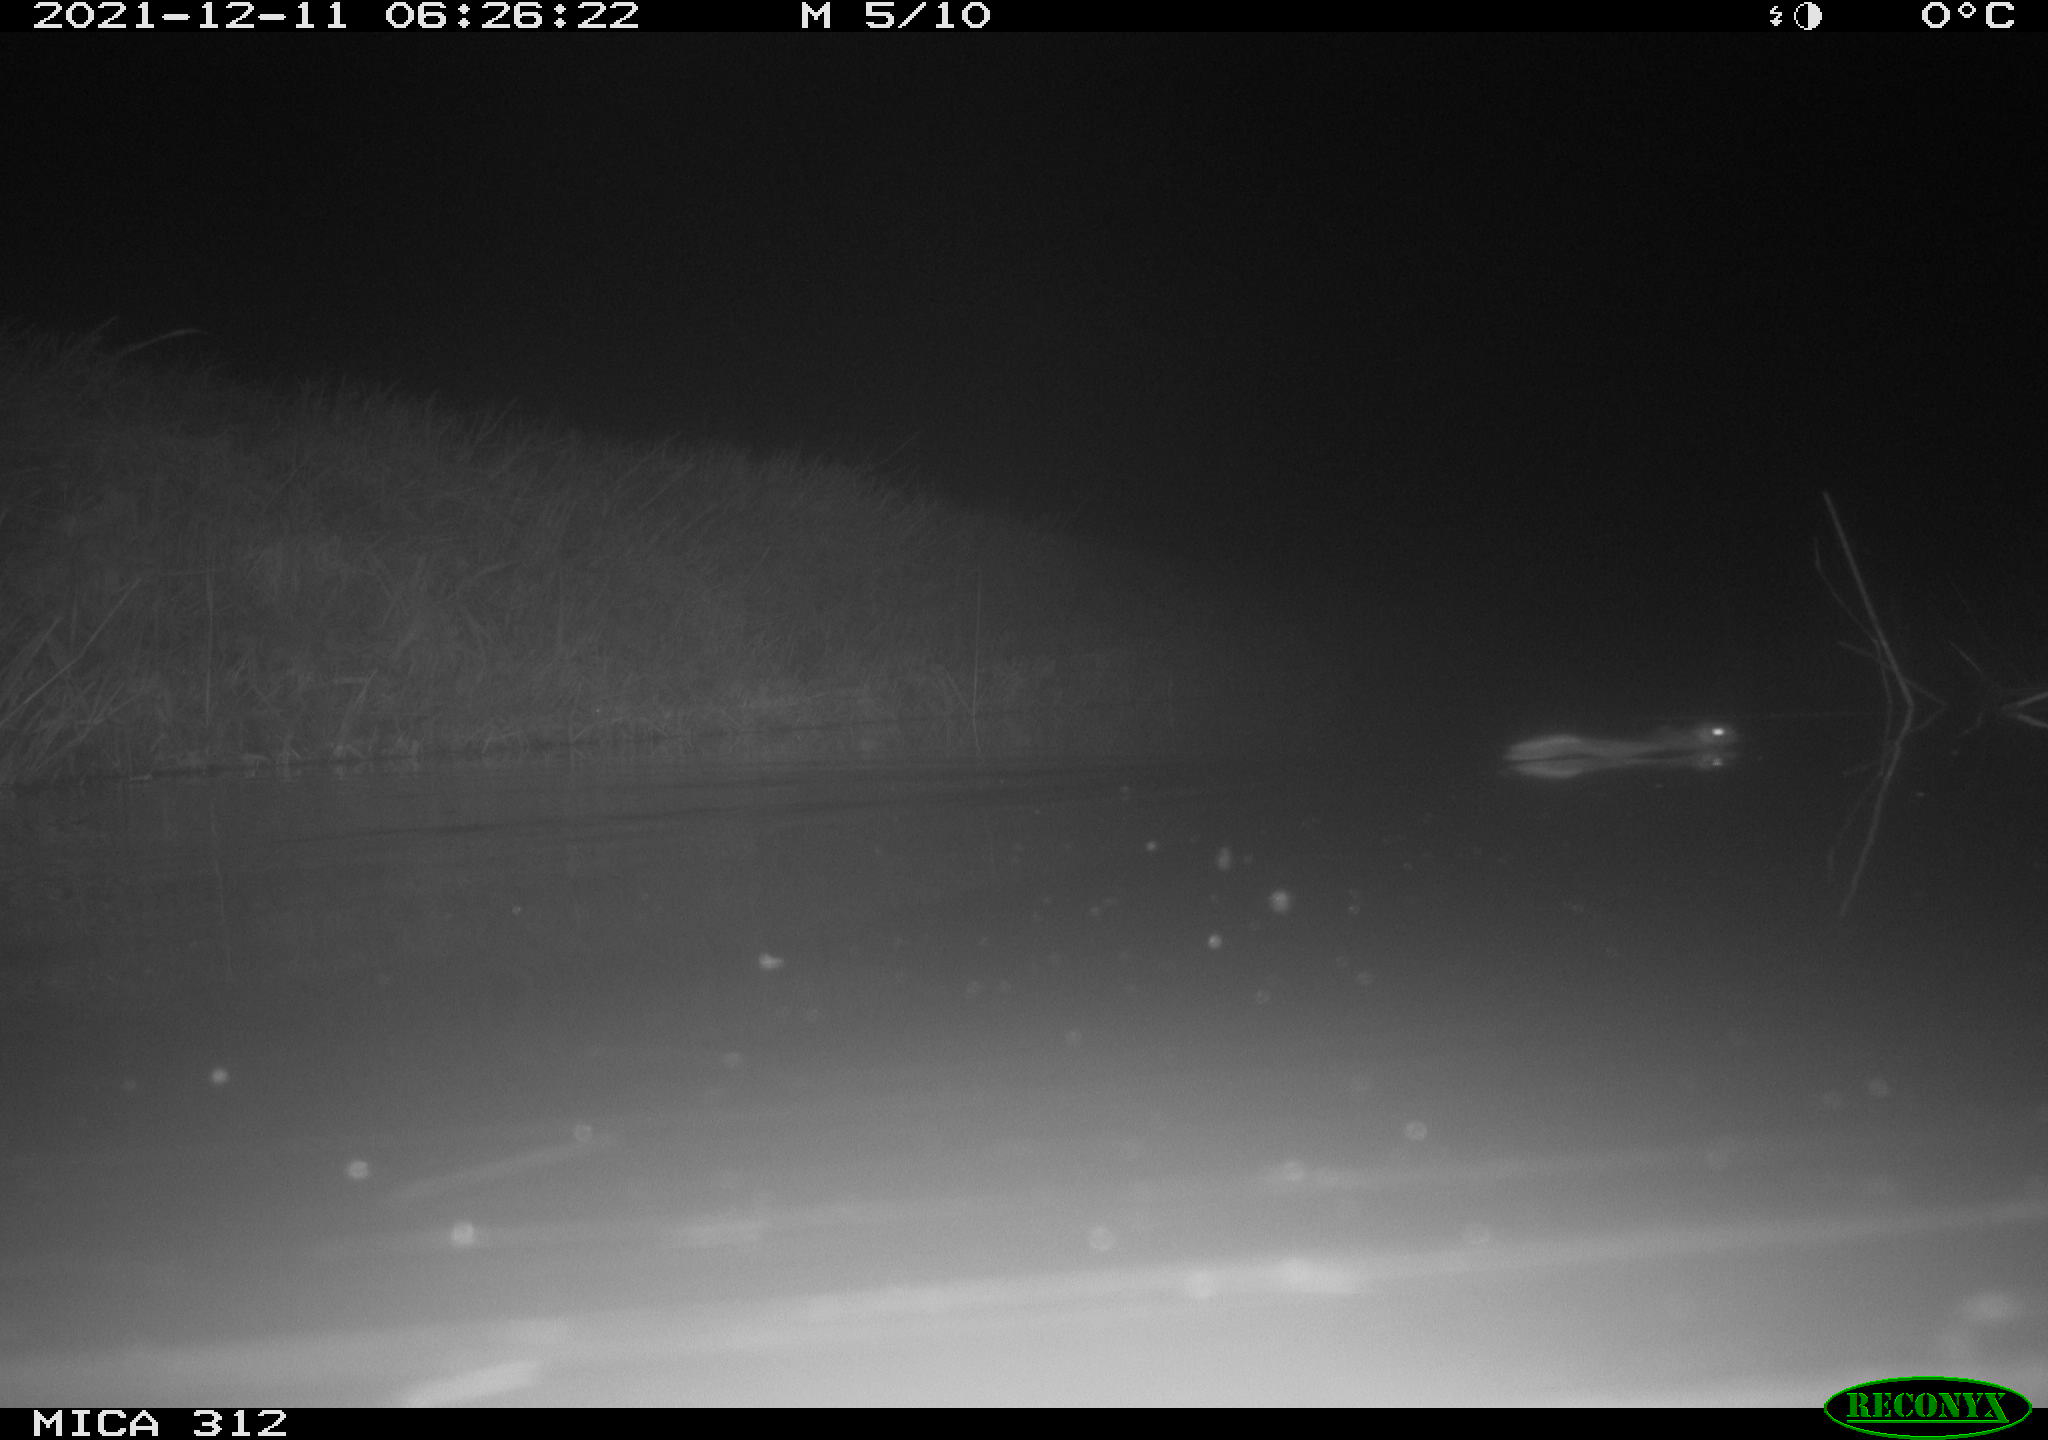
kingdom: Animalia
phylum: Chordata
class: Mammalia
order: Rodentia
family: Muridae
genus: Rattus
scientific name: Rattus norvegicus
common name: Brown rat
